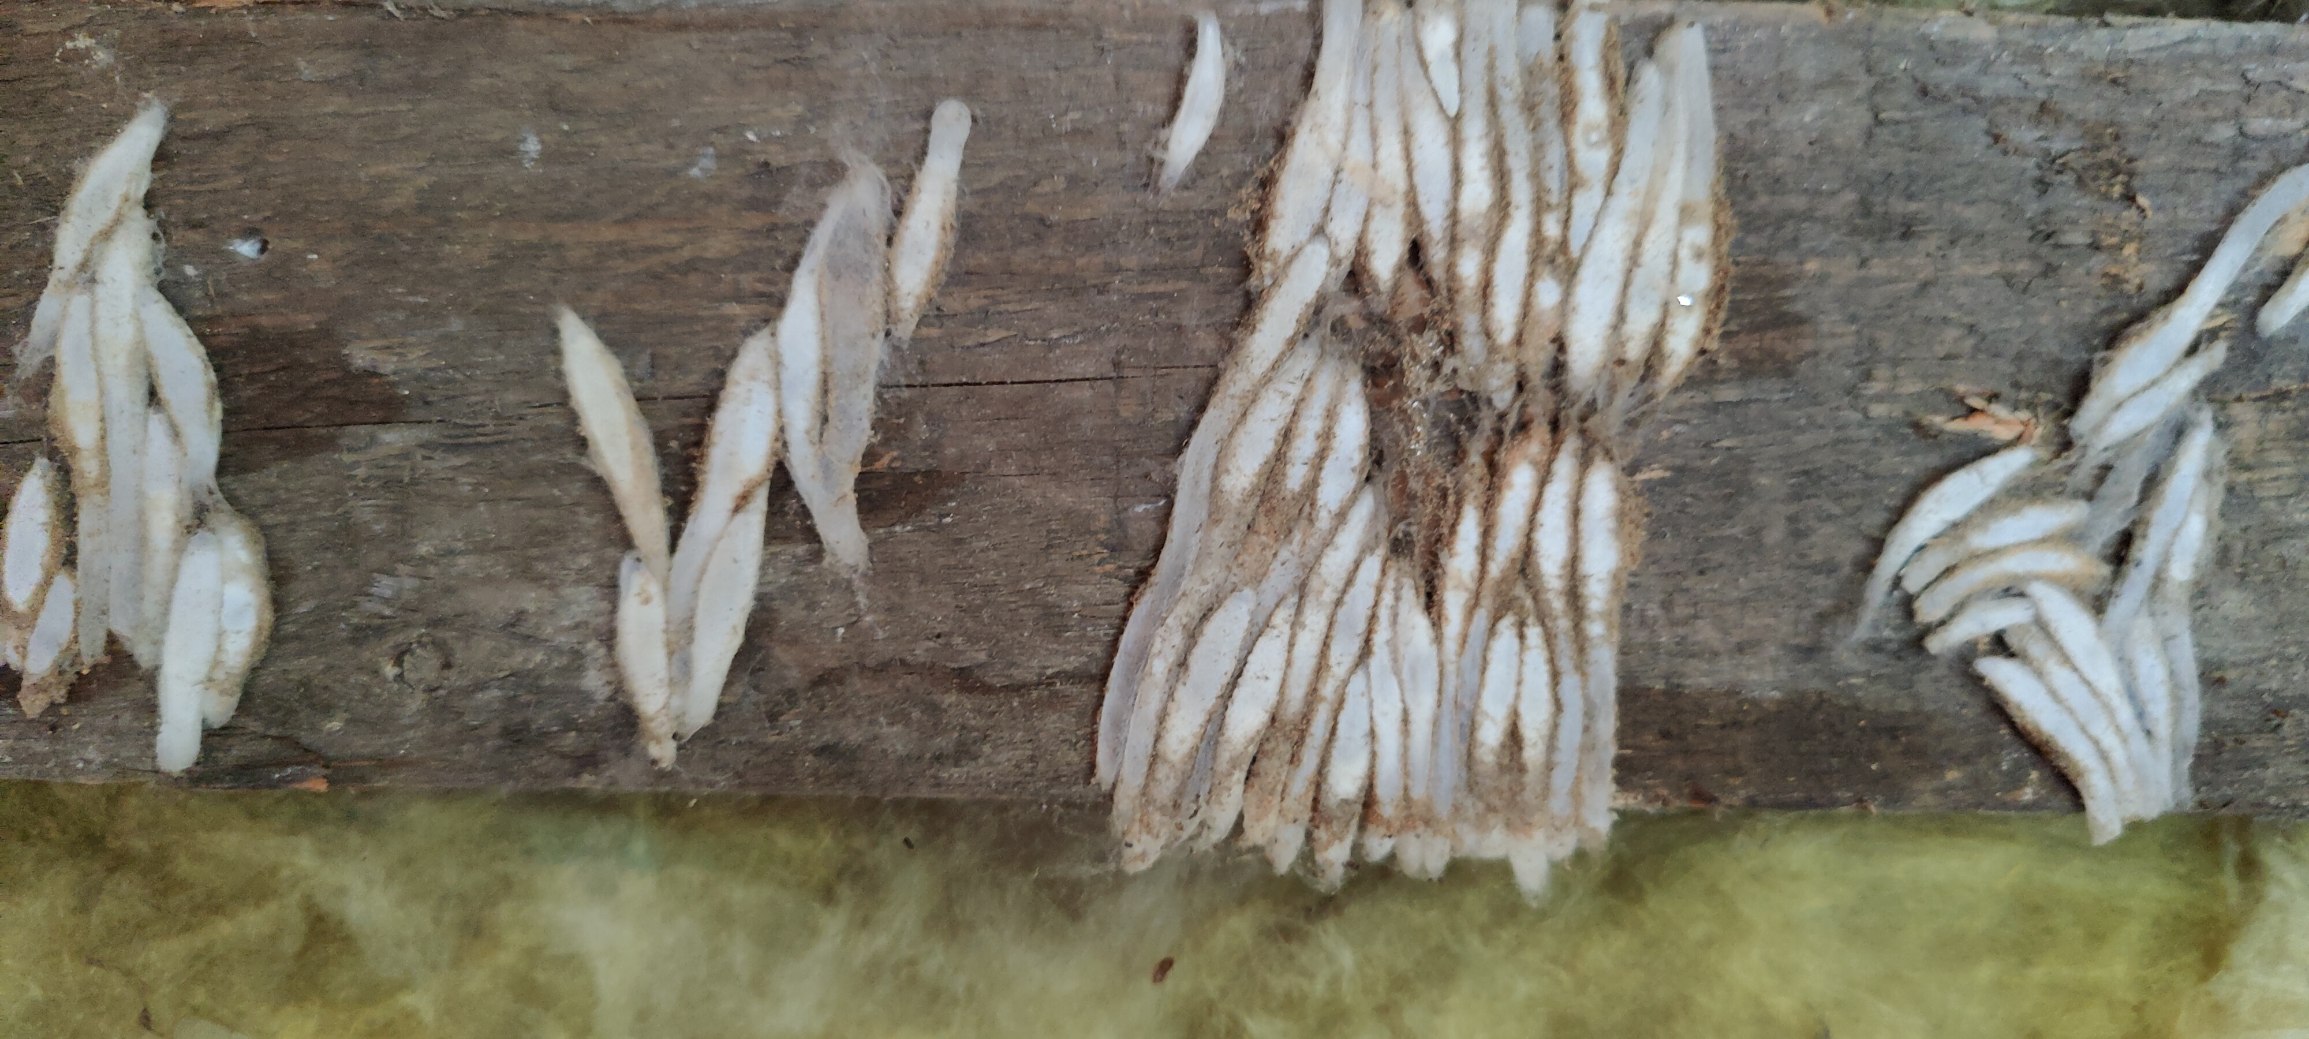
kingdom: Animalia
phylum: Arthropoda
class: Insecta
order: Lepidoptera
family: Pyralidae
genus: Aphomia
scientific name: Aphomia sociella
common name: Humlevoksmøl
